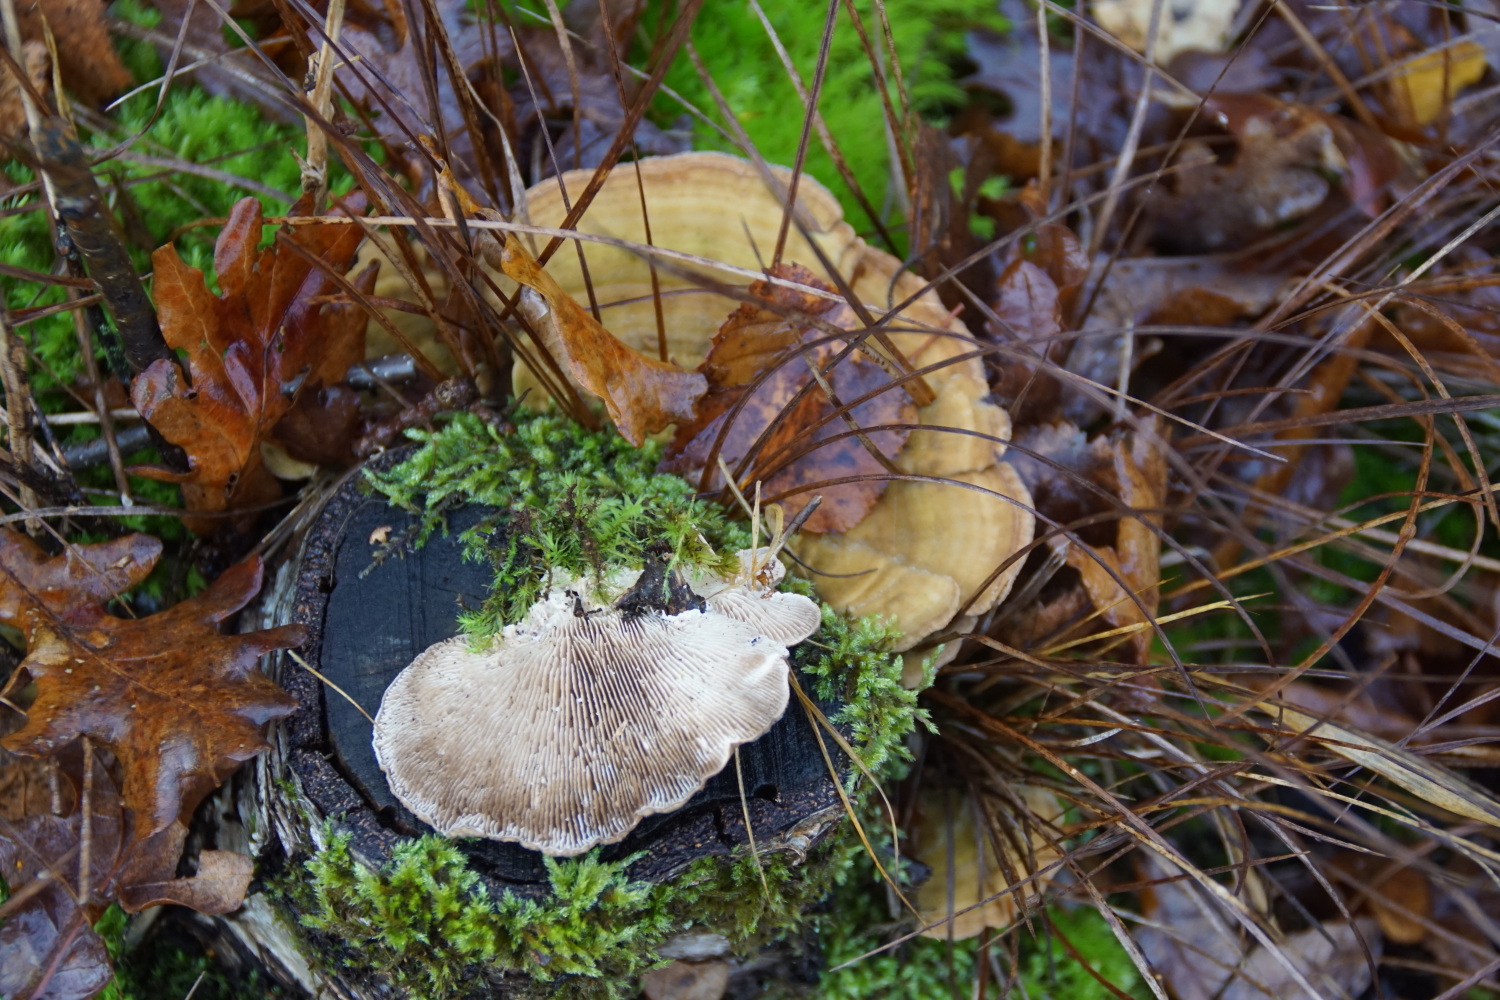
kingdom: Fungi
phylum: Basidiomycota
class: Agaricomycetes
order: Polyporales
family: Polyporaceae
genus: Lenzites
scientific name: Lenzites betulinus
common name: birke-læderporesvamp
